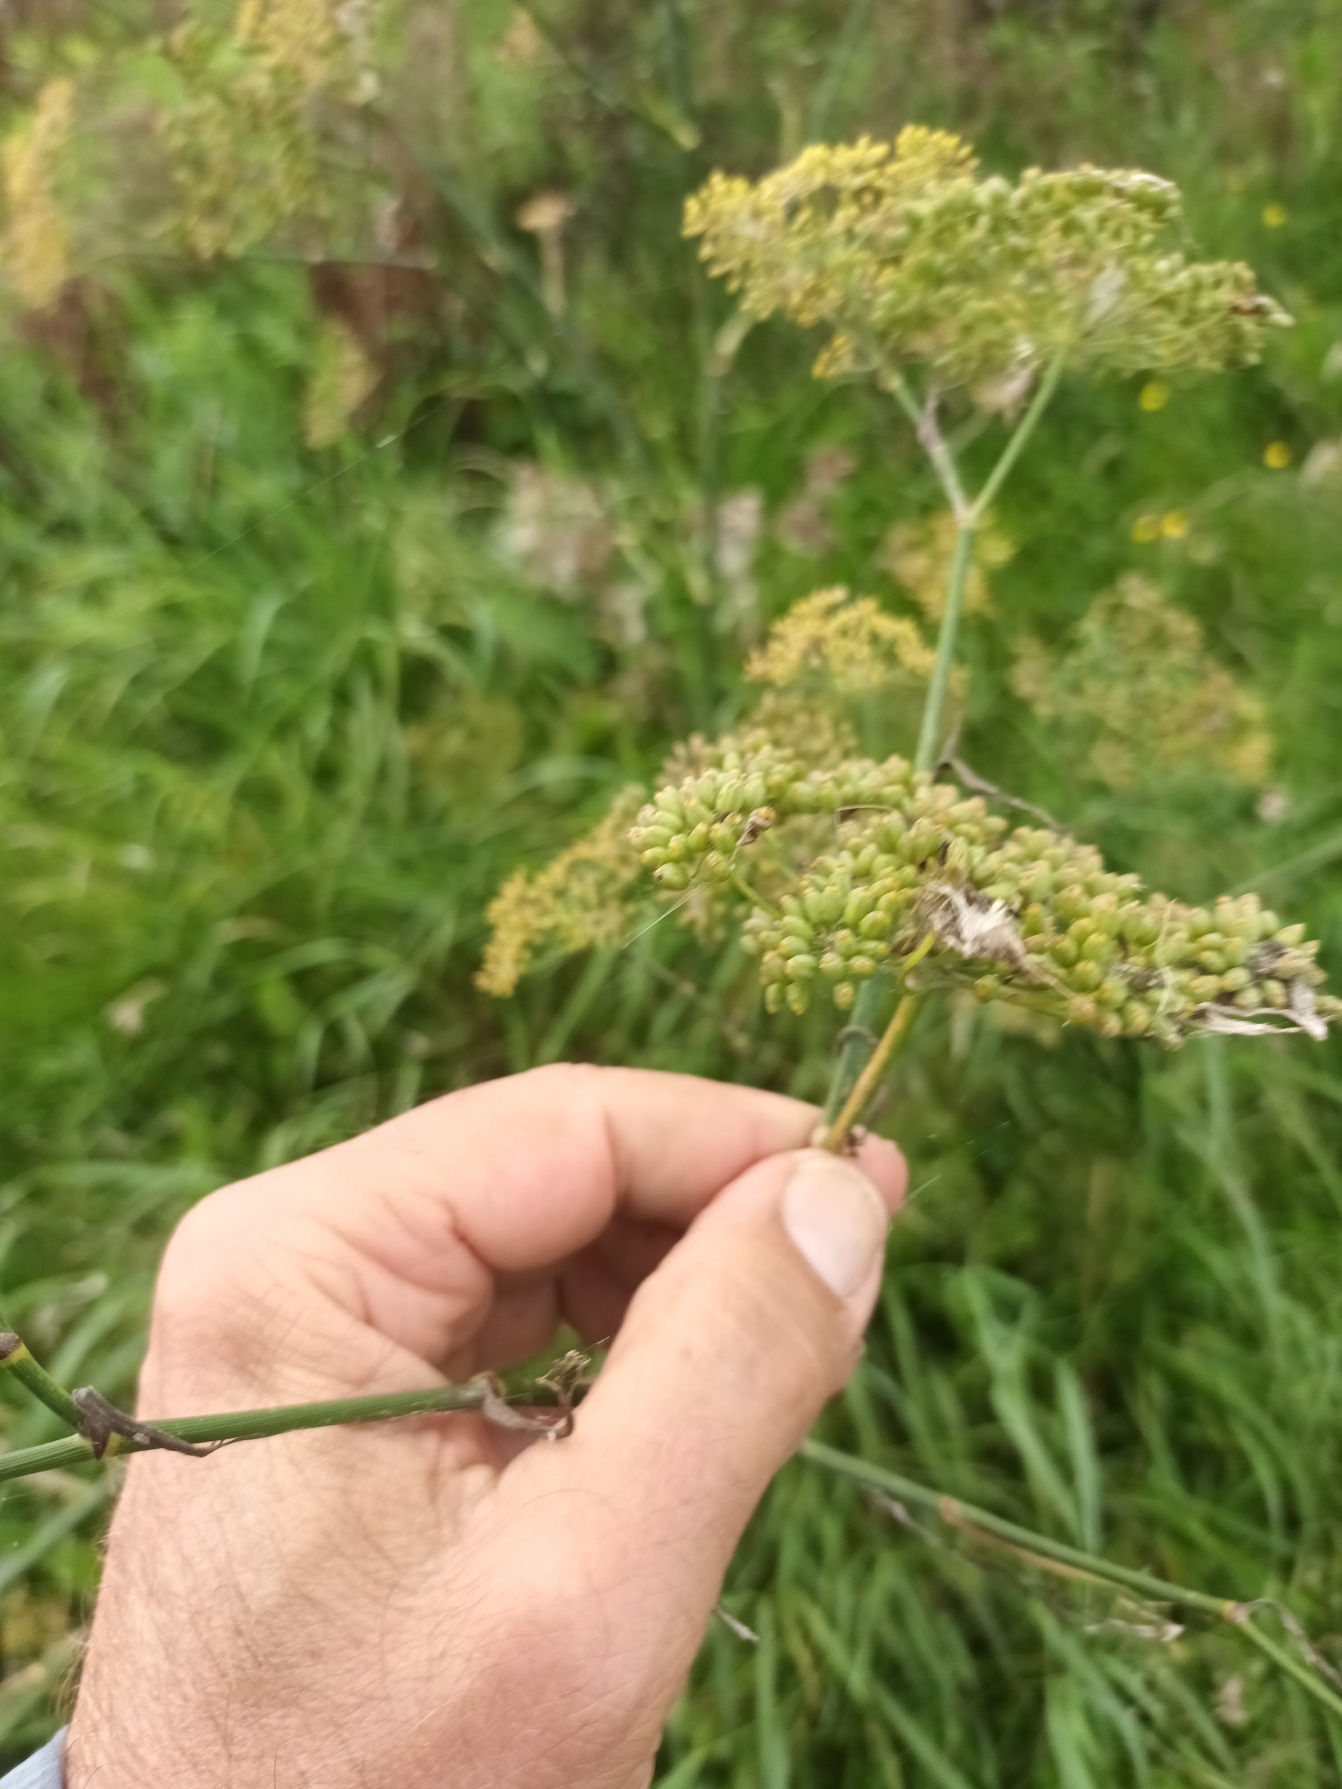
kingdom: Plantae
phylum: Tracheophyta
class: Magnoliopsida
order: Apiales
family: Apiaceae
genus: Foeniculum
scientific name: Foeniculum vulgare
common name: Fennikel
